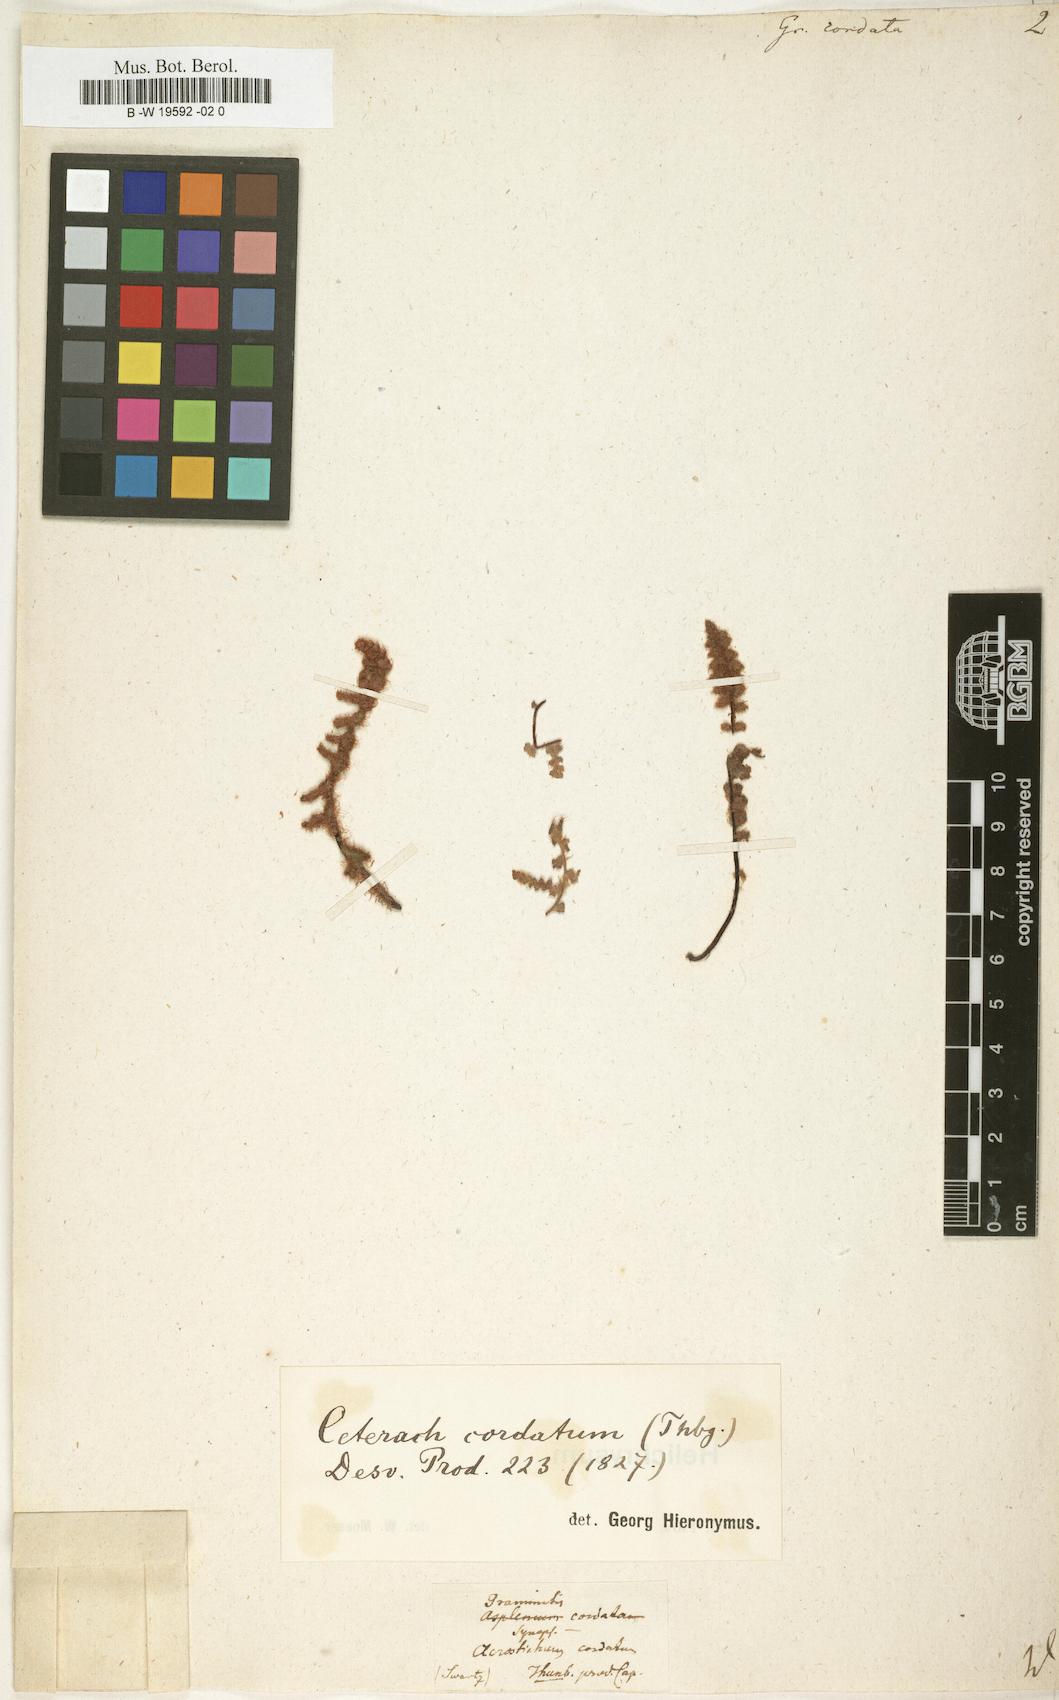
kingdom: Plantae
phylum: Tracheophyta
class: Polypodiopsida
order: Polypodiales
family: Polypodiaceae
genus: Enterosora
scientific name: Enterosora cornuta
